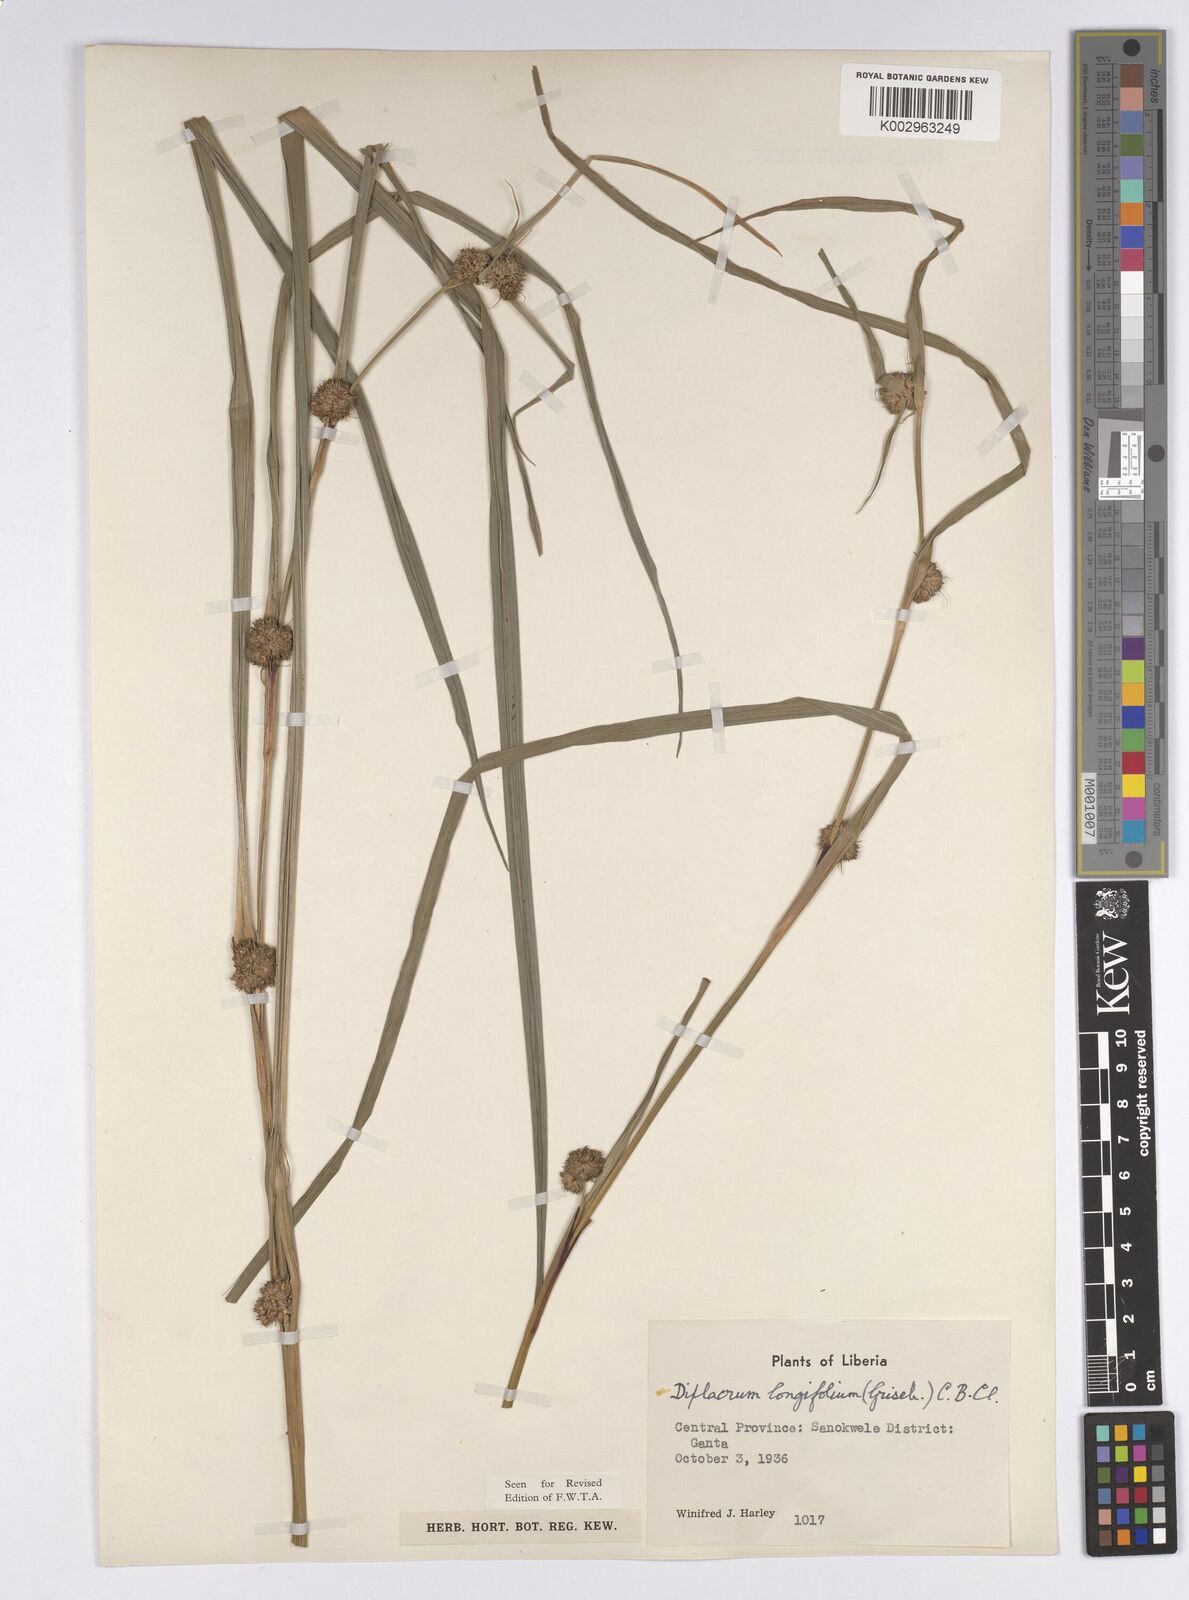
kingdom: Plantae
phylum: Tracheophyta
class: Liliopsida
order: Poales
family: Cyperaceae
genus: Diplacrum
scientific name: Diplacrum capitatum
